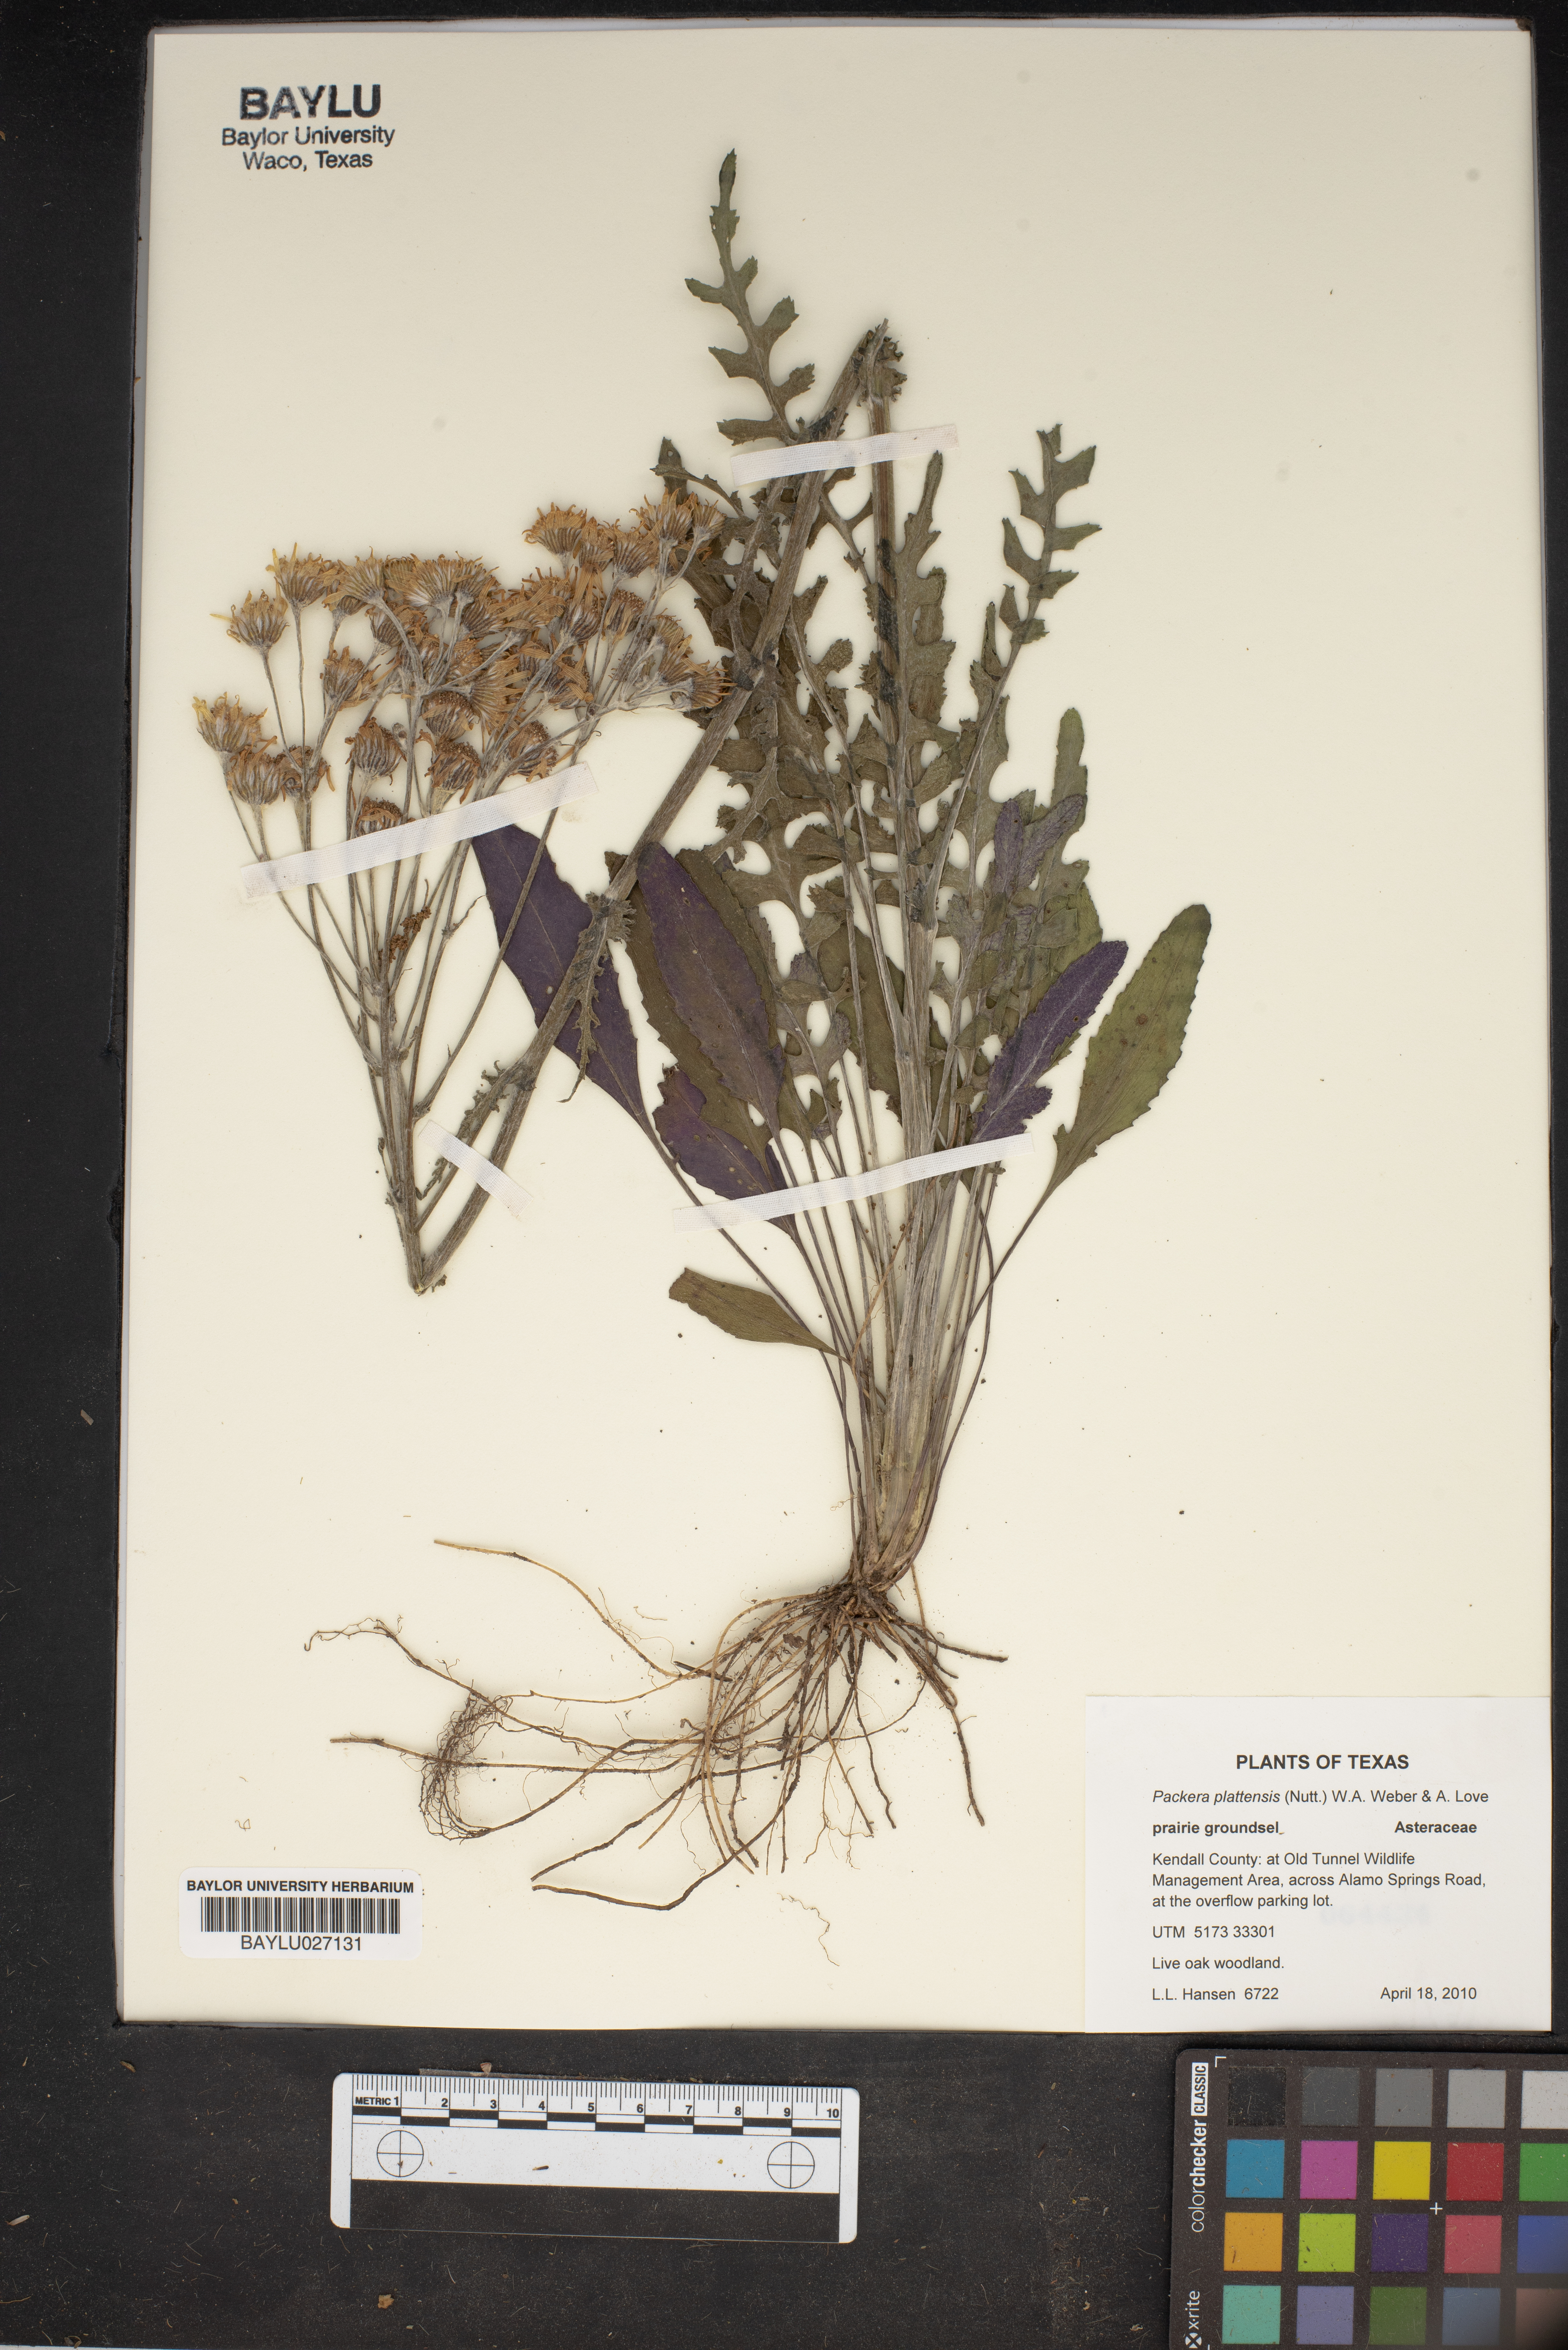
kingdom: Plantae
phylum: Tracheophyta
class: Magnoliopsida
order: Asterales
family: Asteraceae
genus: Packera
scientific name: Packera plattensis
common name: Prairie groundsel
